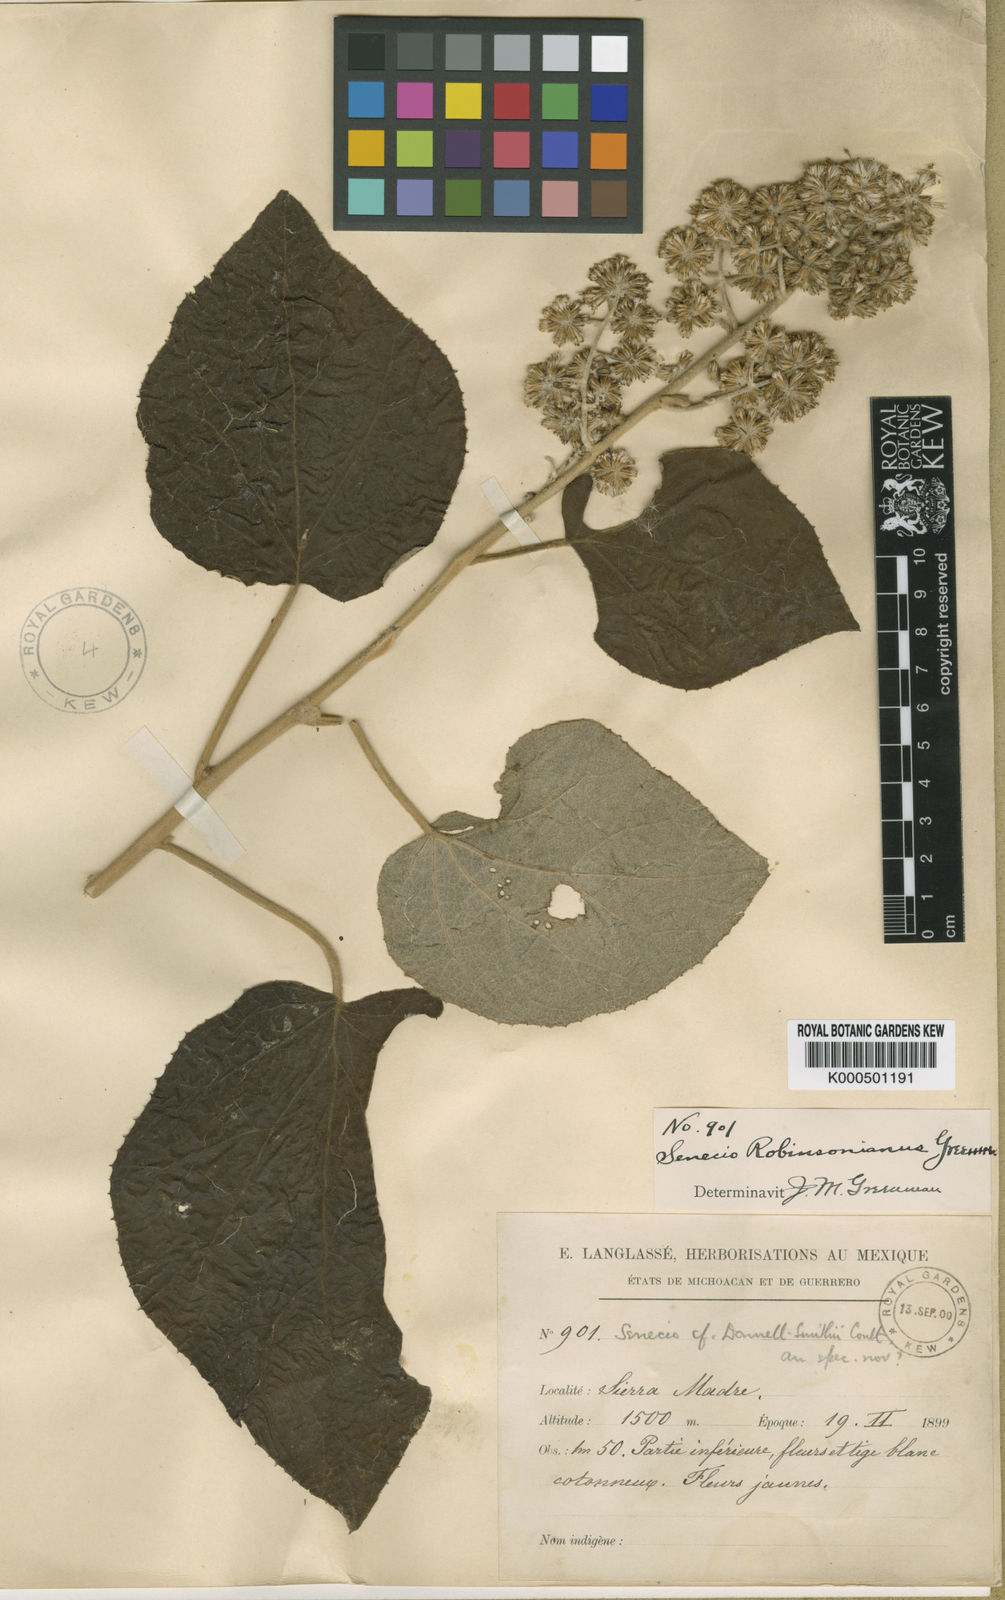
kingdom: Plantae
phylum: Tracheophyta
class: Magnoliopsida
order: Asterales
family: Asteraceae
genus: Roldana
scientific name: Roldana robinsoniana
